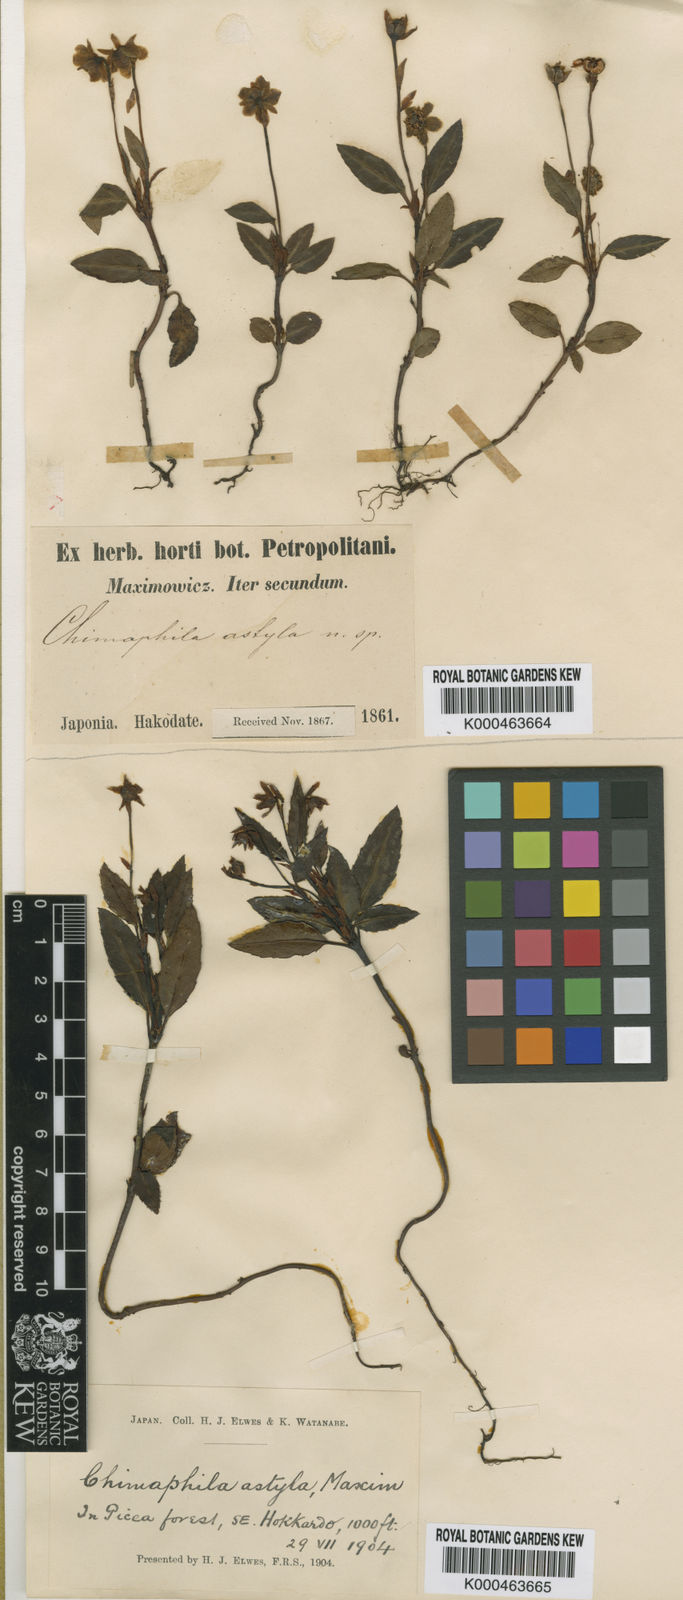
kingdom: Plantae
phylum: Tracheophyta
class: Magnoliopsida
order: Ericales
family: Ericaceae
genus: Chimaphila
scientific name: Chimaphila japonica
